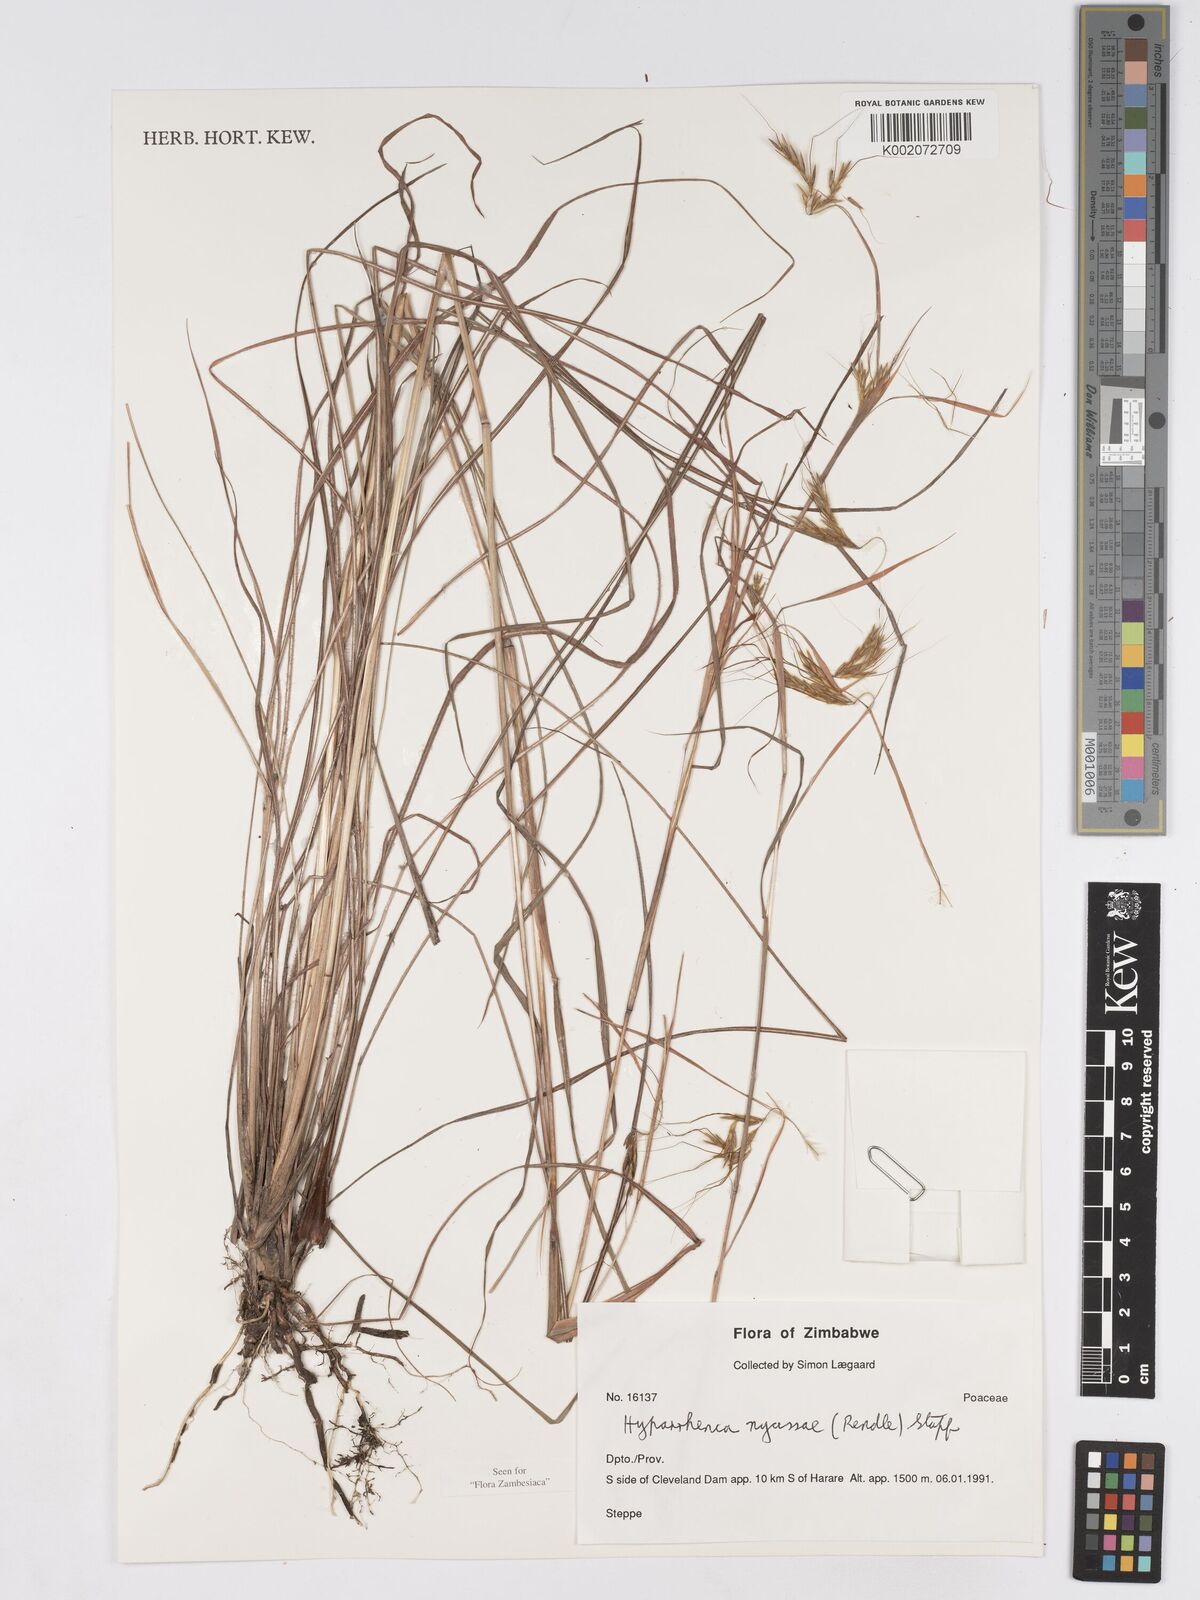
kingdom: Plantae
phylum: Tracheophyta
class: Liliopsida
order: Poales
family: Poaceae
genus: Hyparrhenia
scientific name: Hyparrhenia nyassae
